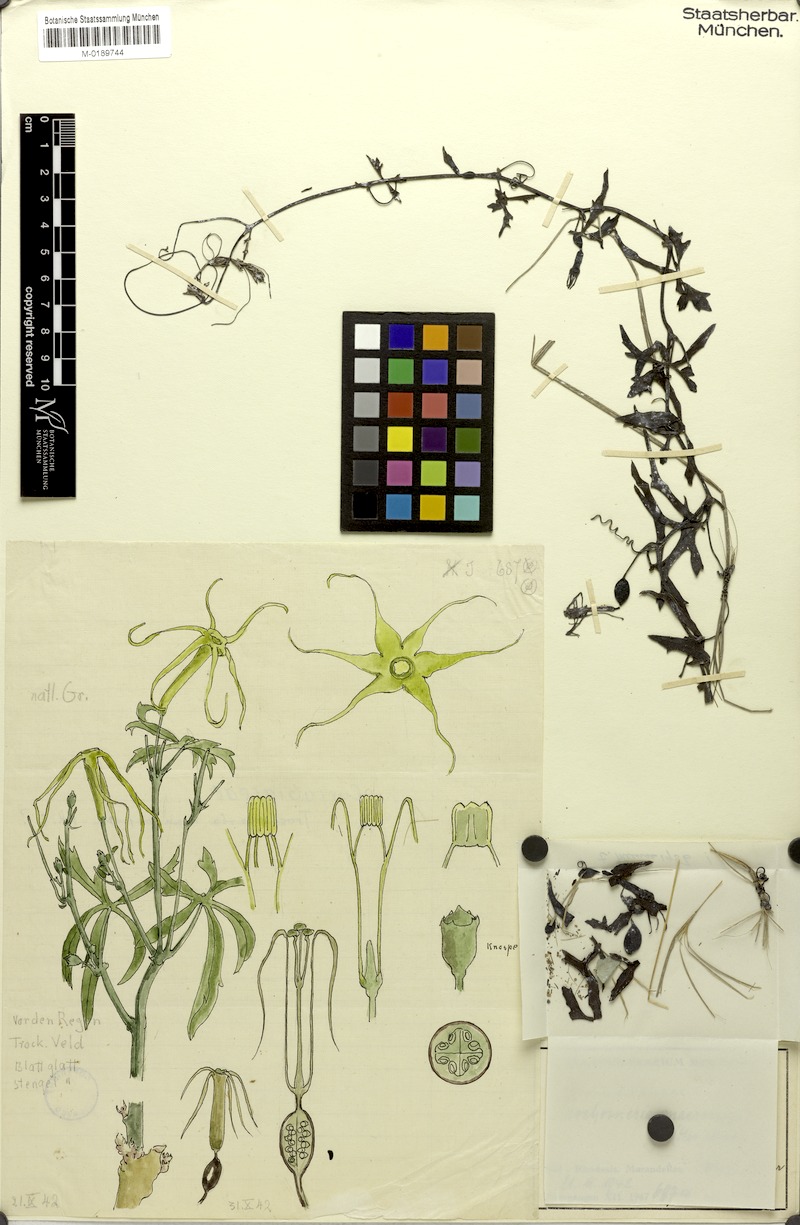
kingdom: Plantae
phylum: Tracheophyta
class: Magnoliopsida
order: Cucurbitales
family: Cucurbitaceae
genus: Trochomeria
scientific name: Trochomeria macrocarpa
